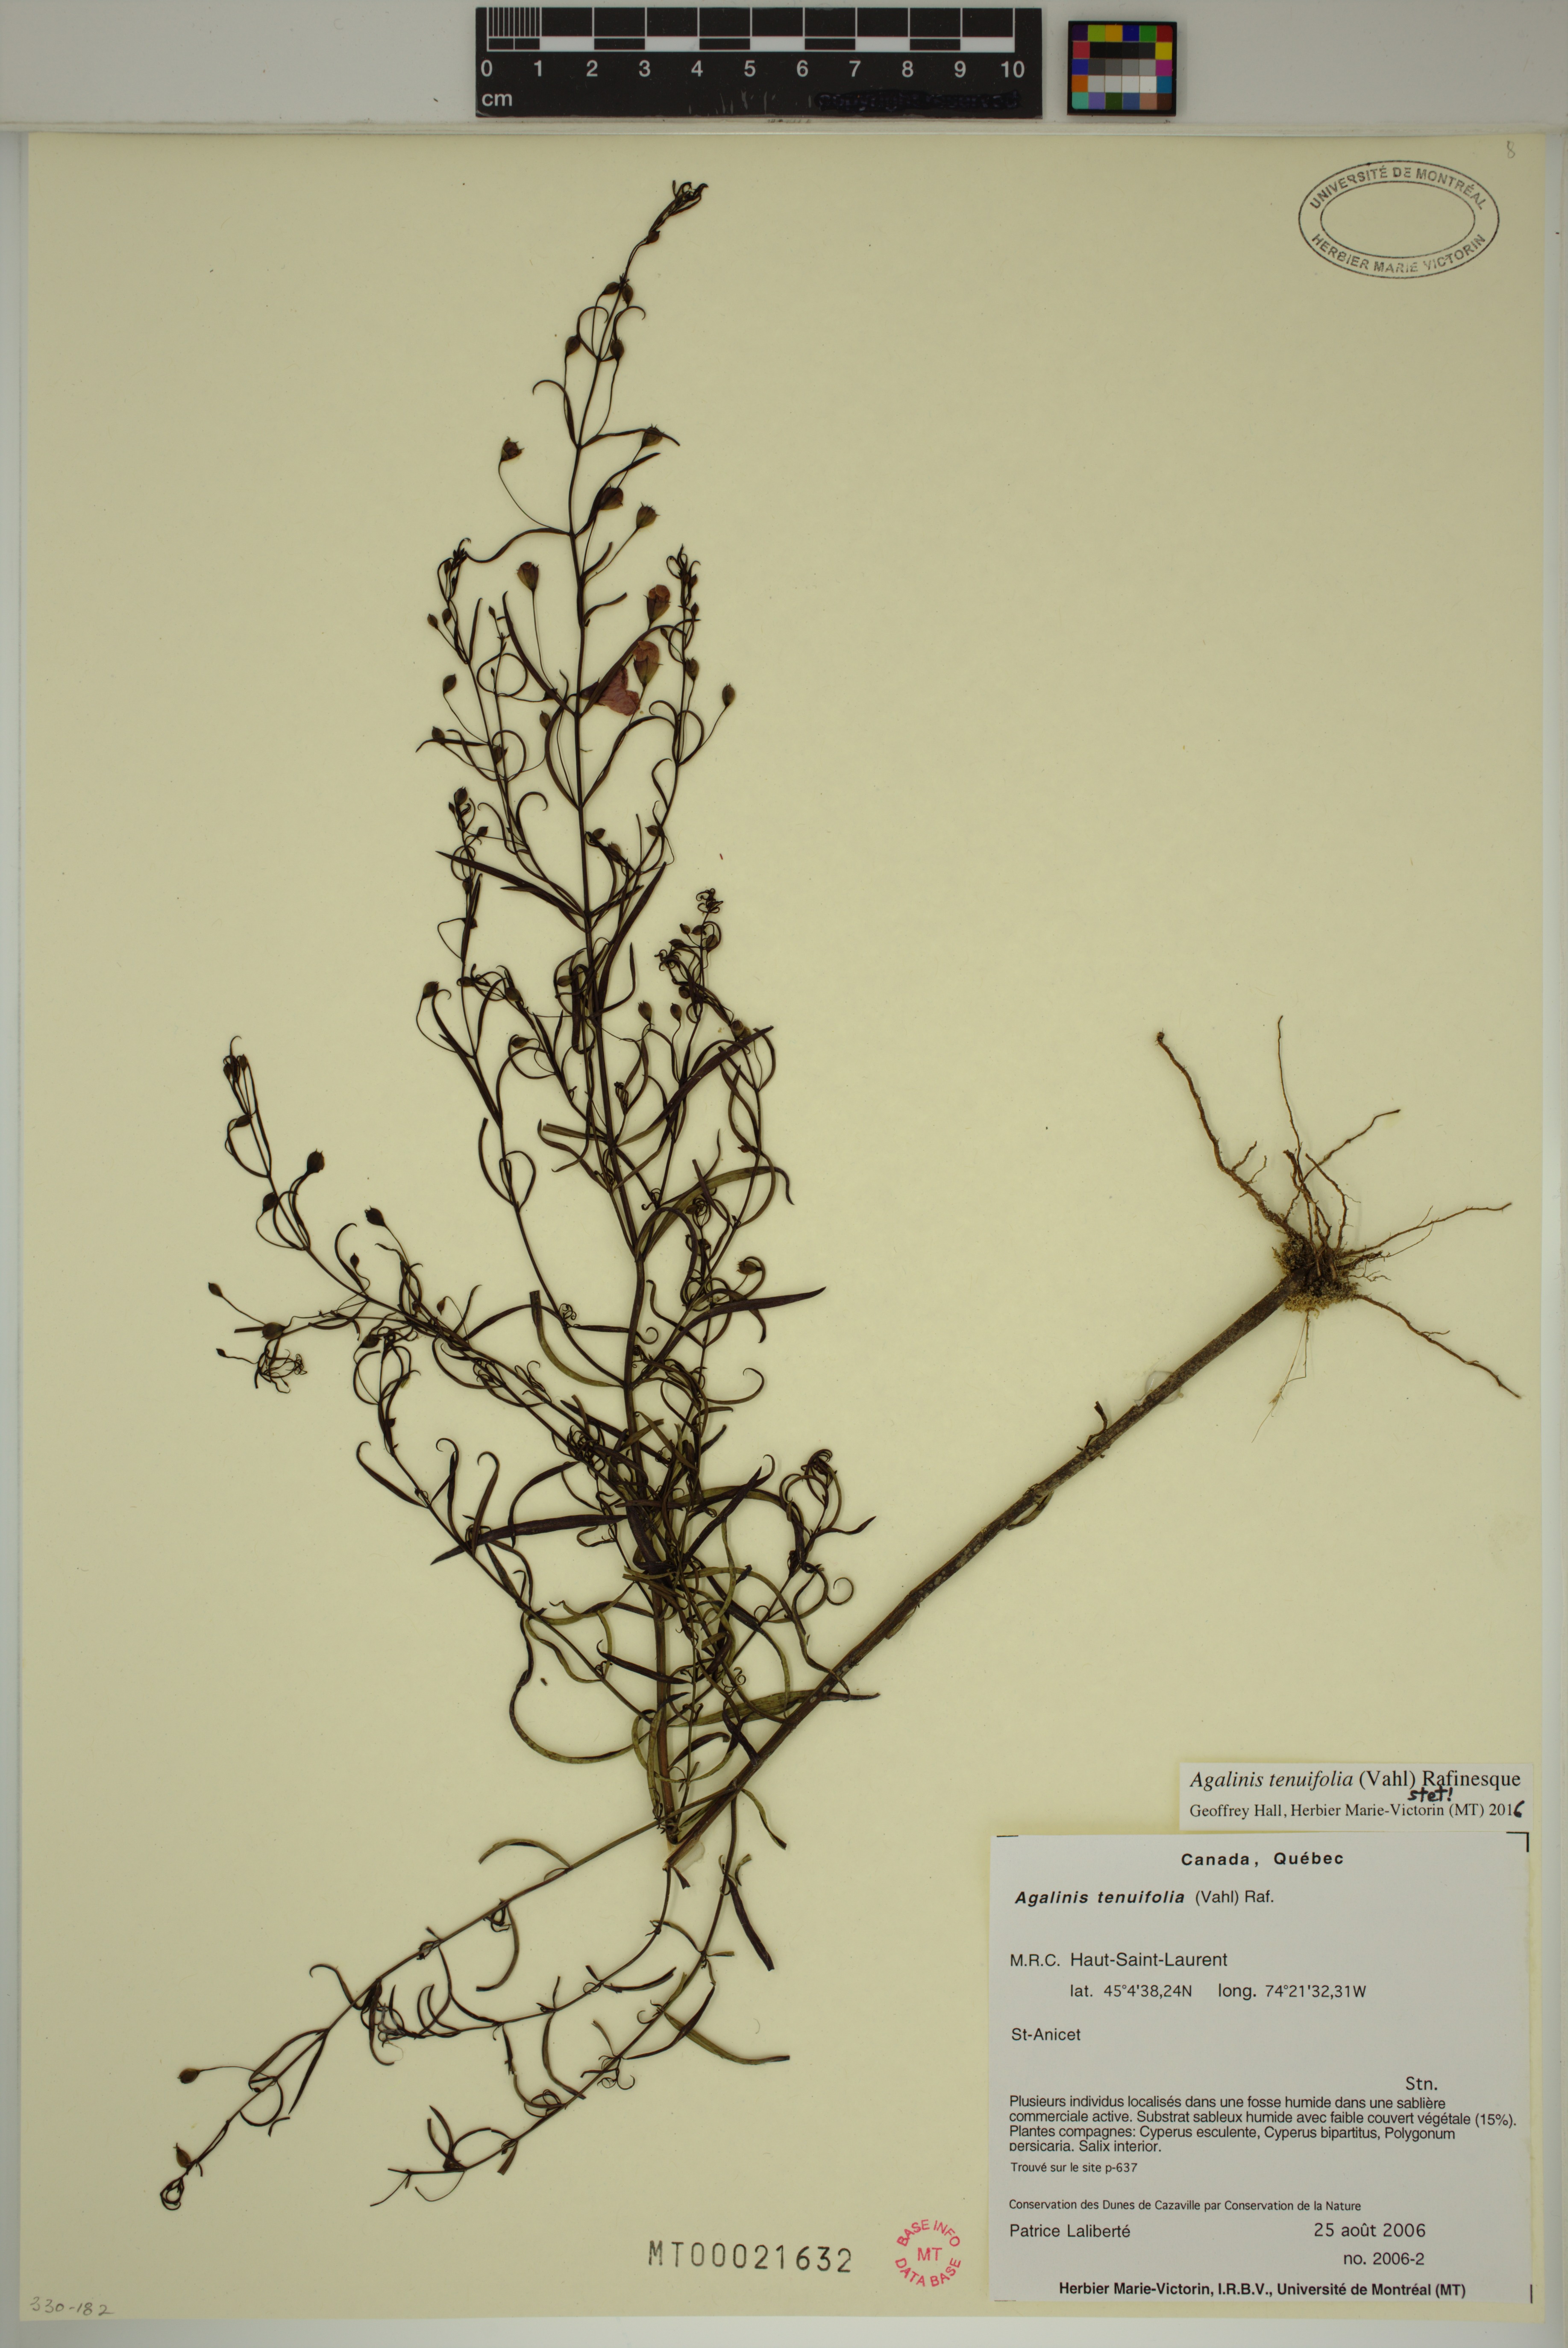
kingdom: Plantae
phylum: Tracheophyta
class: Magnoliopsida
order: Lamiales
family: Orobanchaceae
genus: Agalinis
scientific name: Agalinis tenuifolia
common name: Slender agalinis
